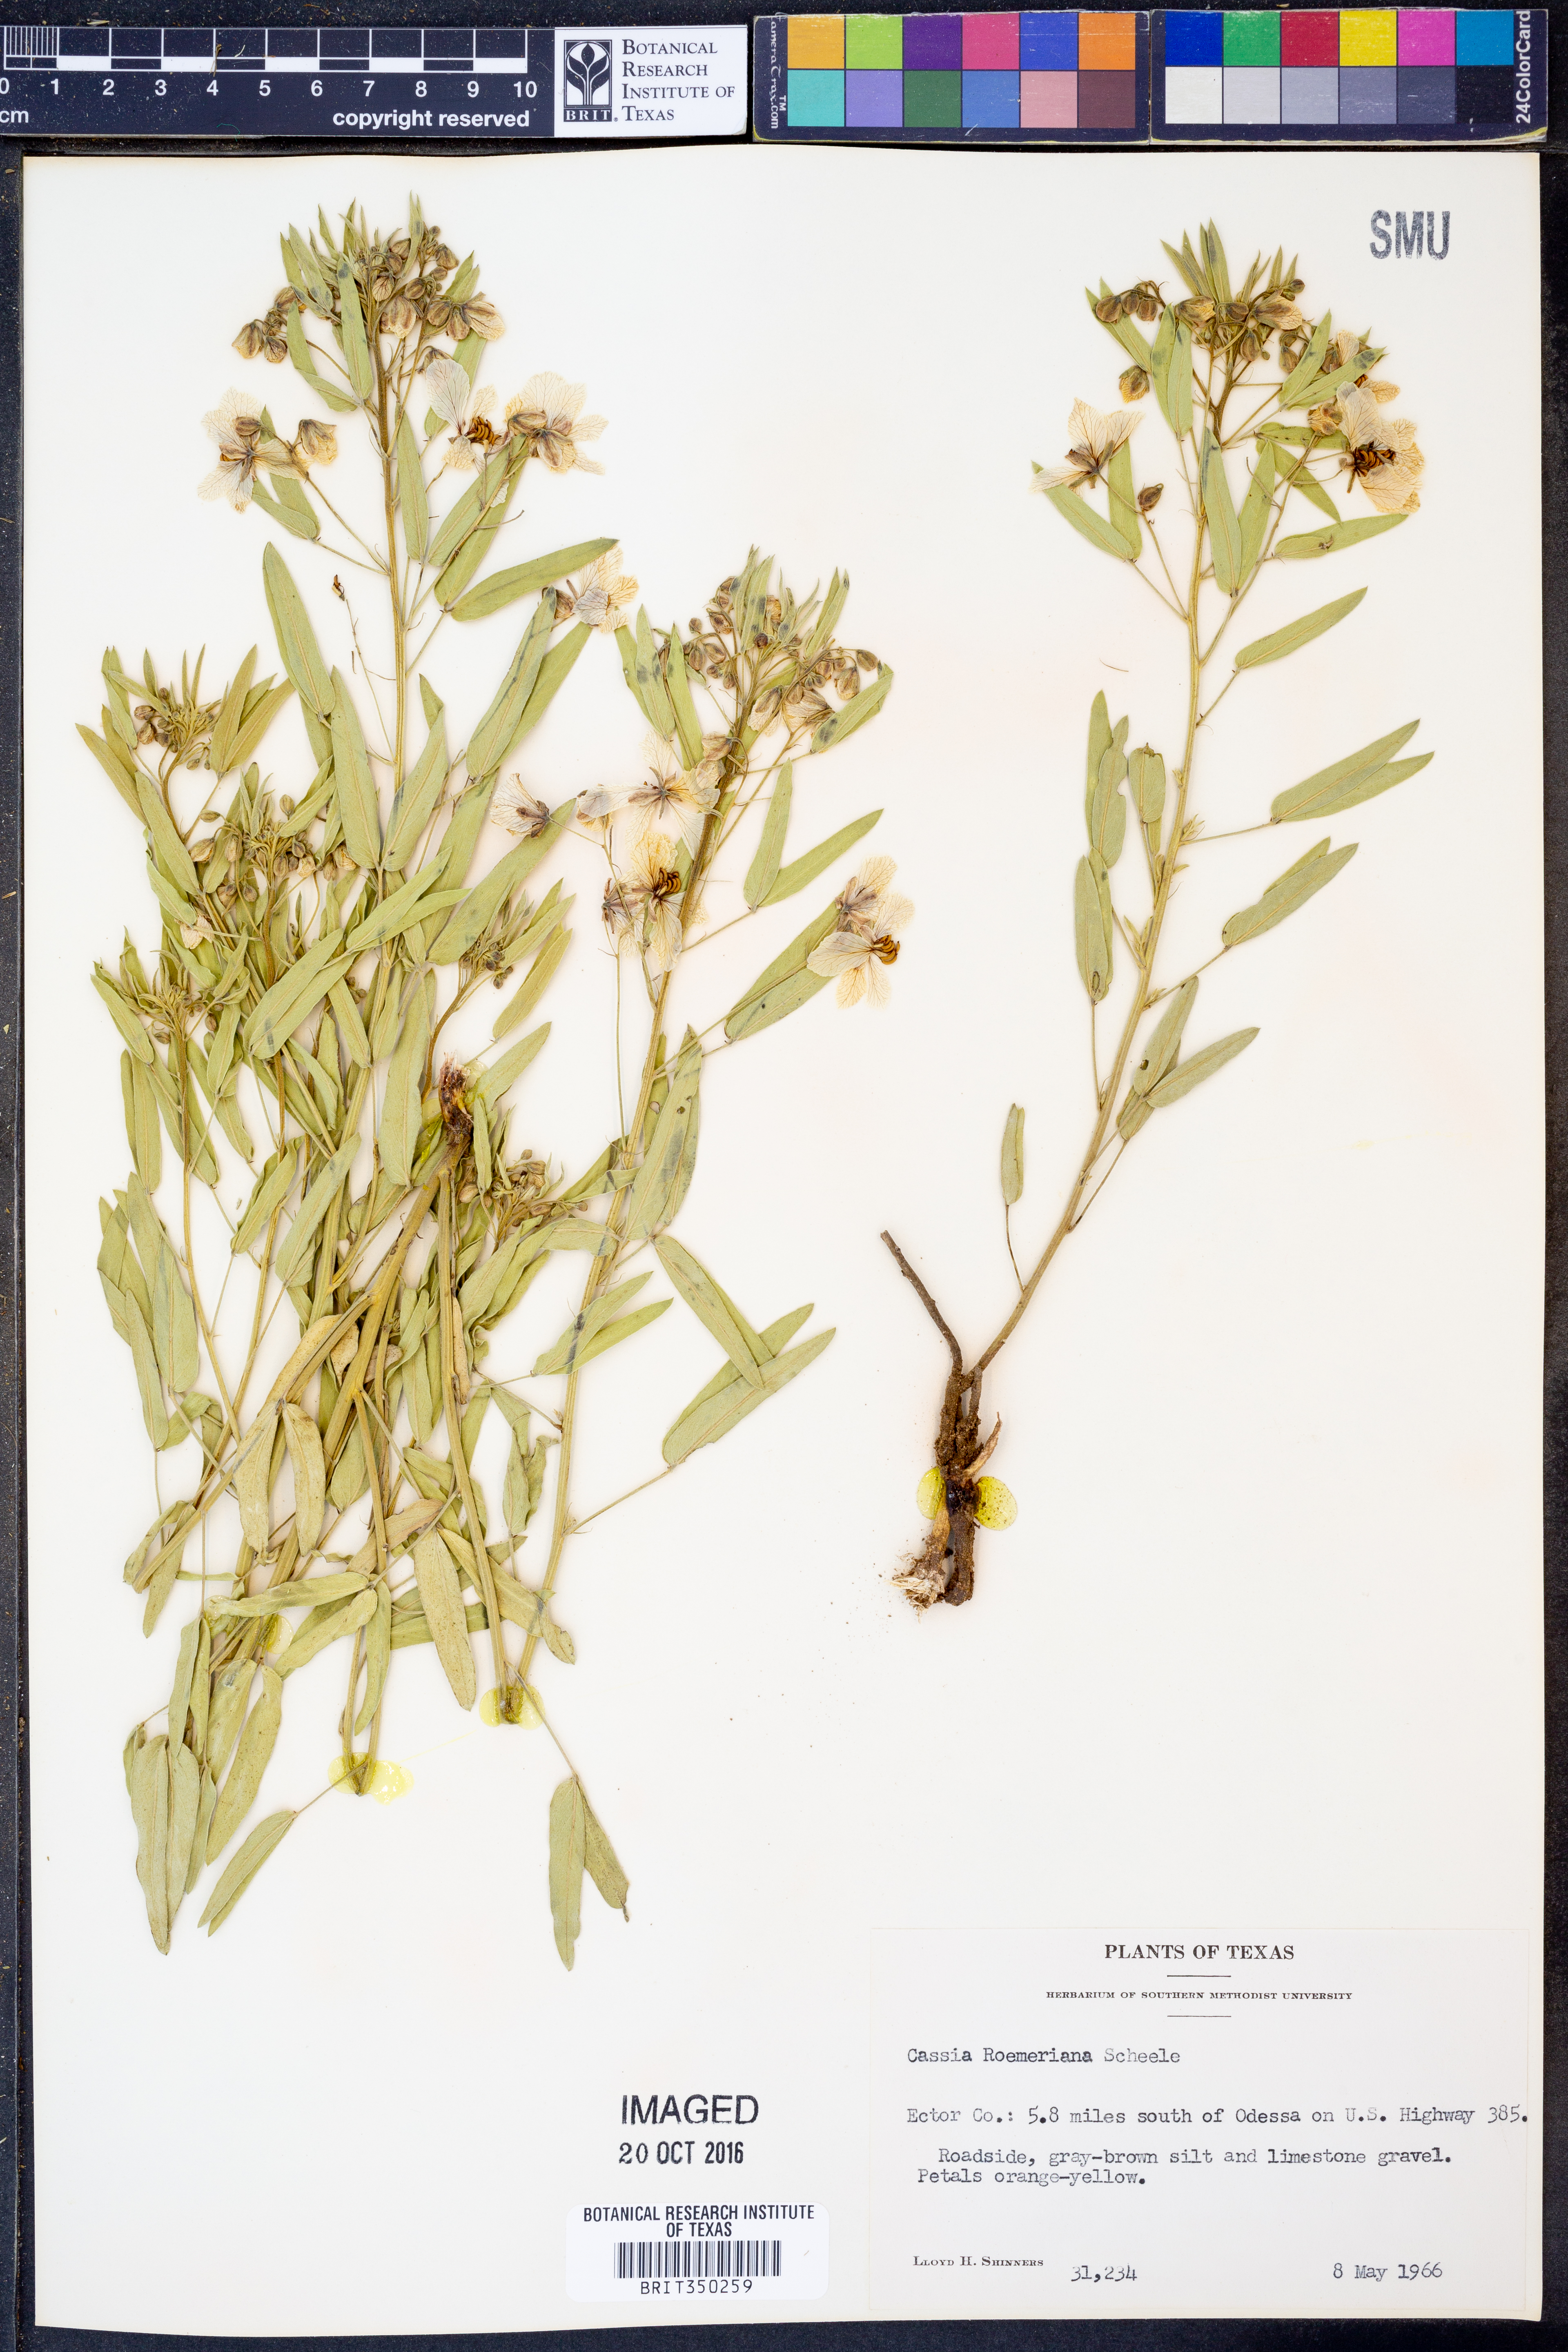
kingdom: Plantae
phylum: Tracheophyta
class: Magnoliopsida
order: Fabales
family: Fabaceae
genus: Senna
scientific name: Senna roemeriana
